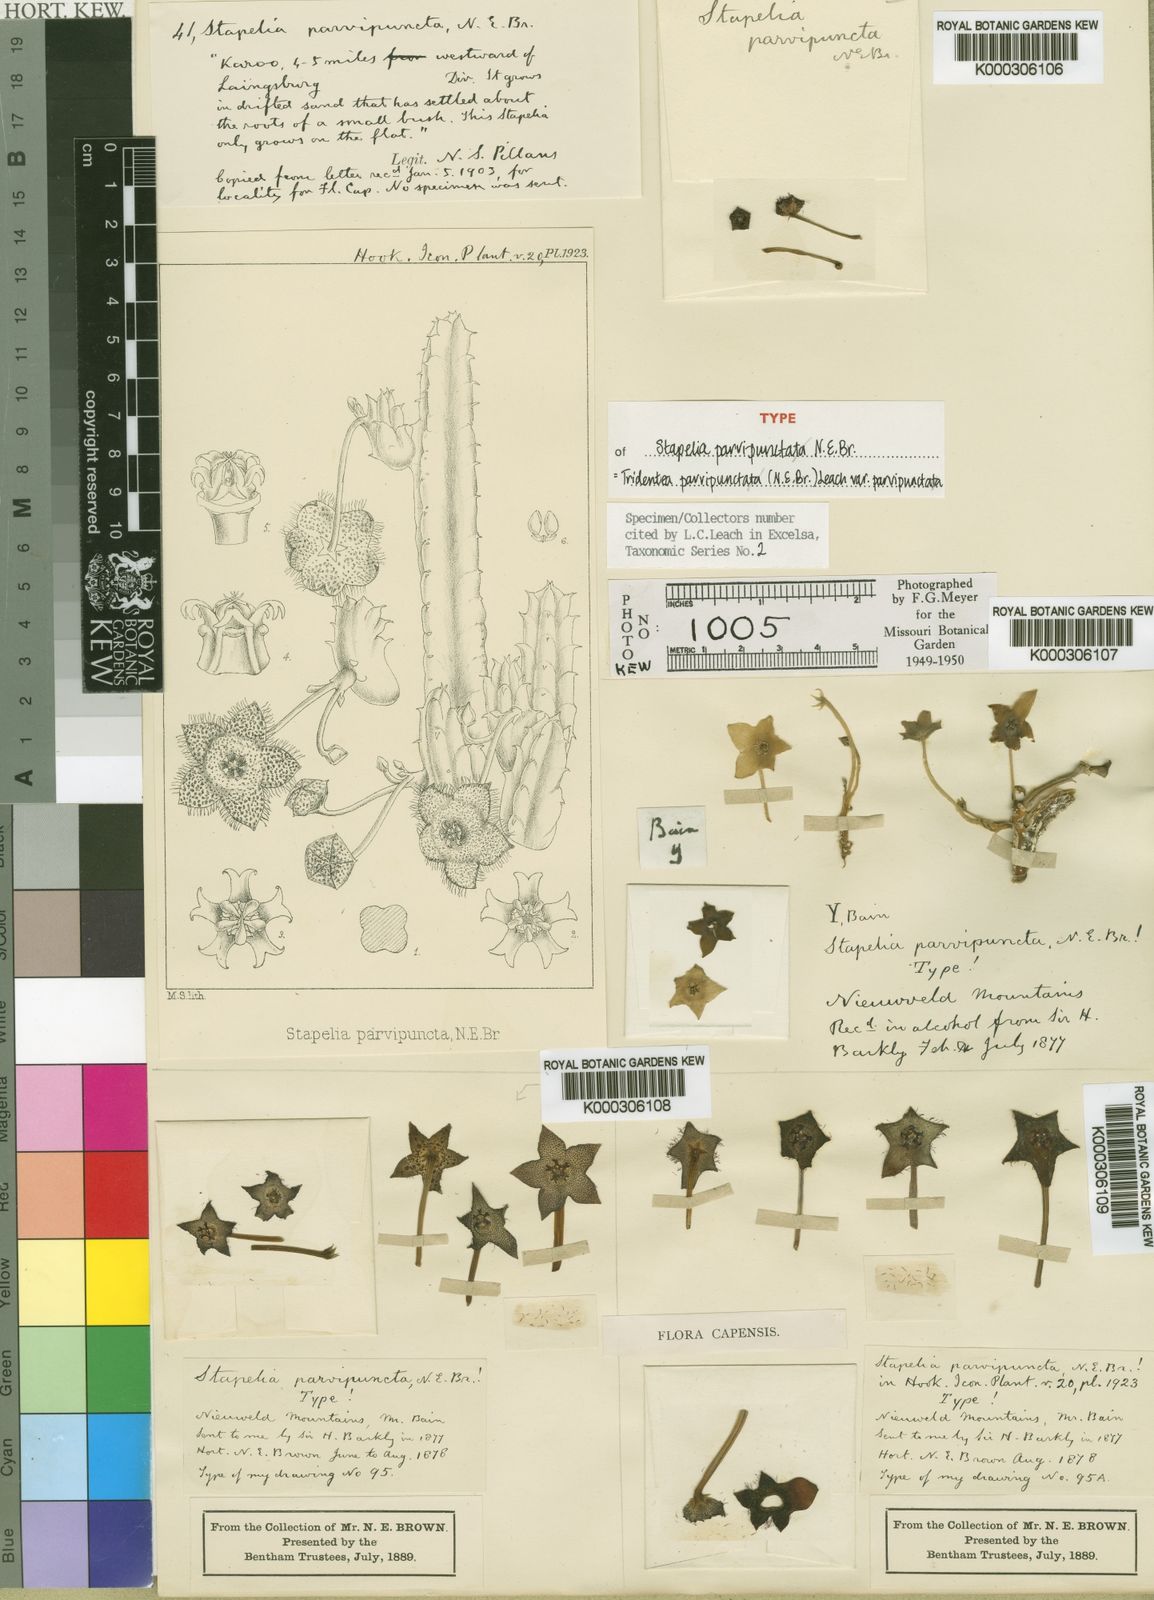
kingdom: Plantae
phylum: Tracheophyta
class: Magnoliopsida
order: Gentianales
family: Apocynaceae
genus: Ceropegia
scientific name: Ceropegia parvipuncta
